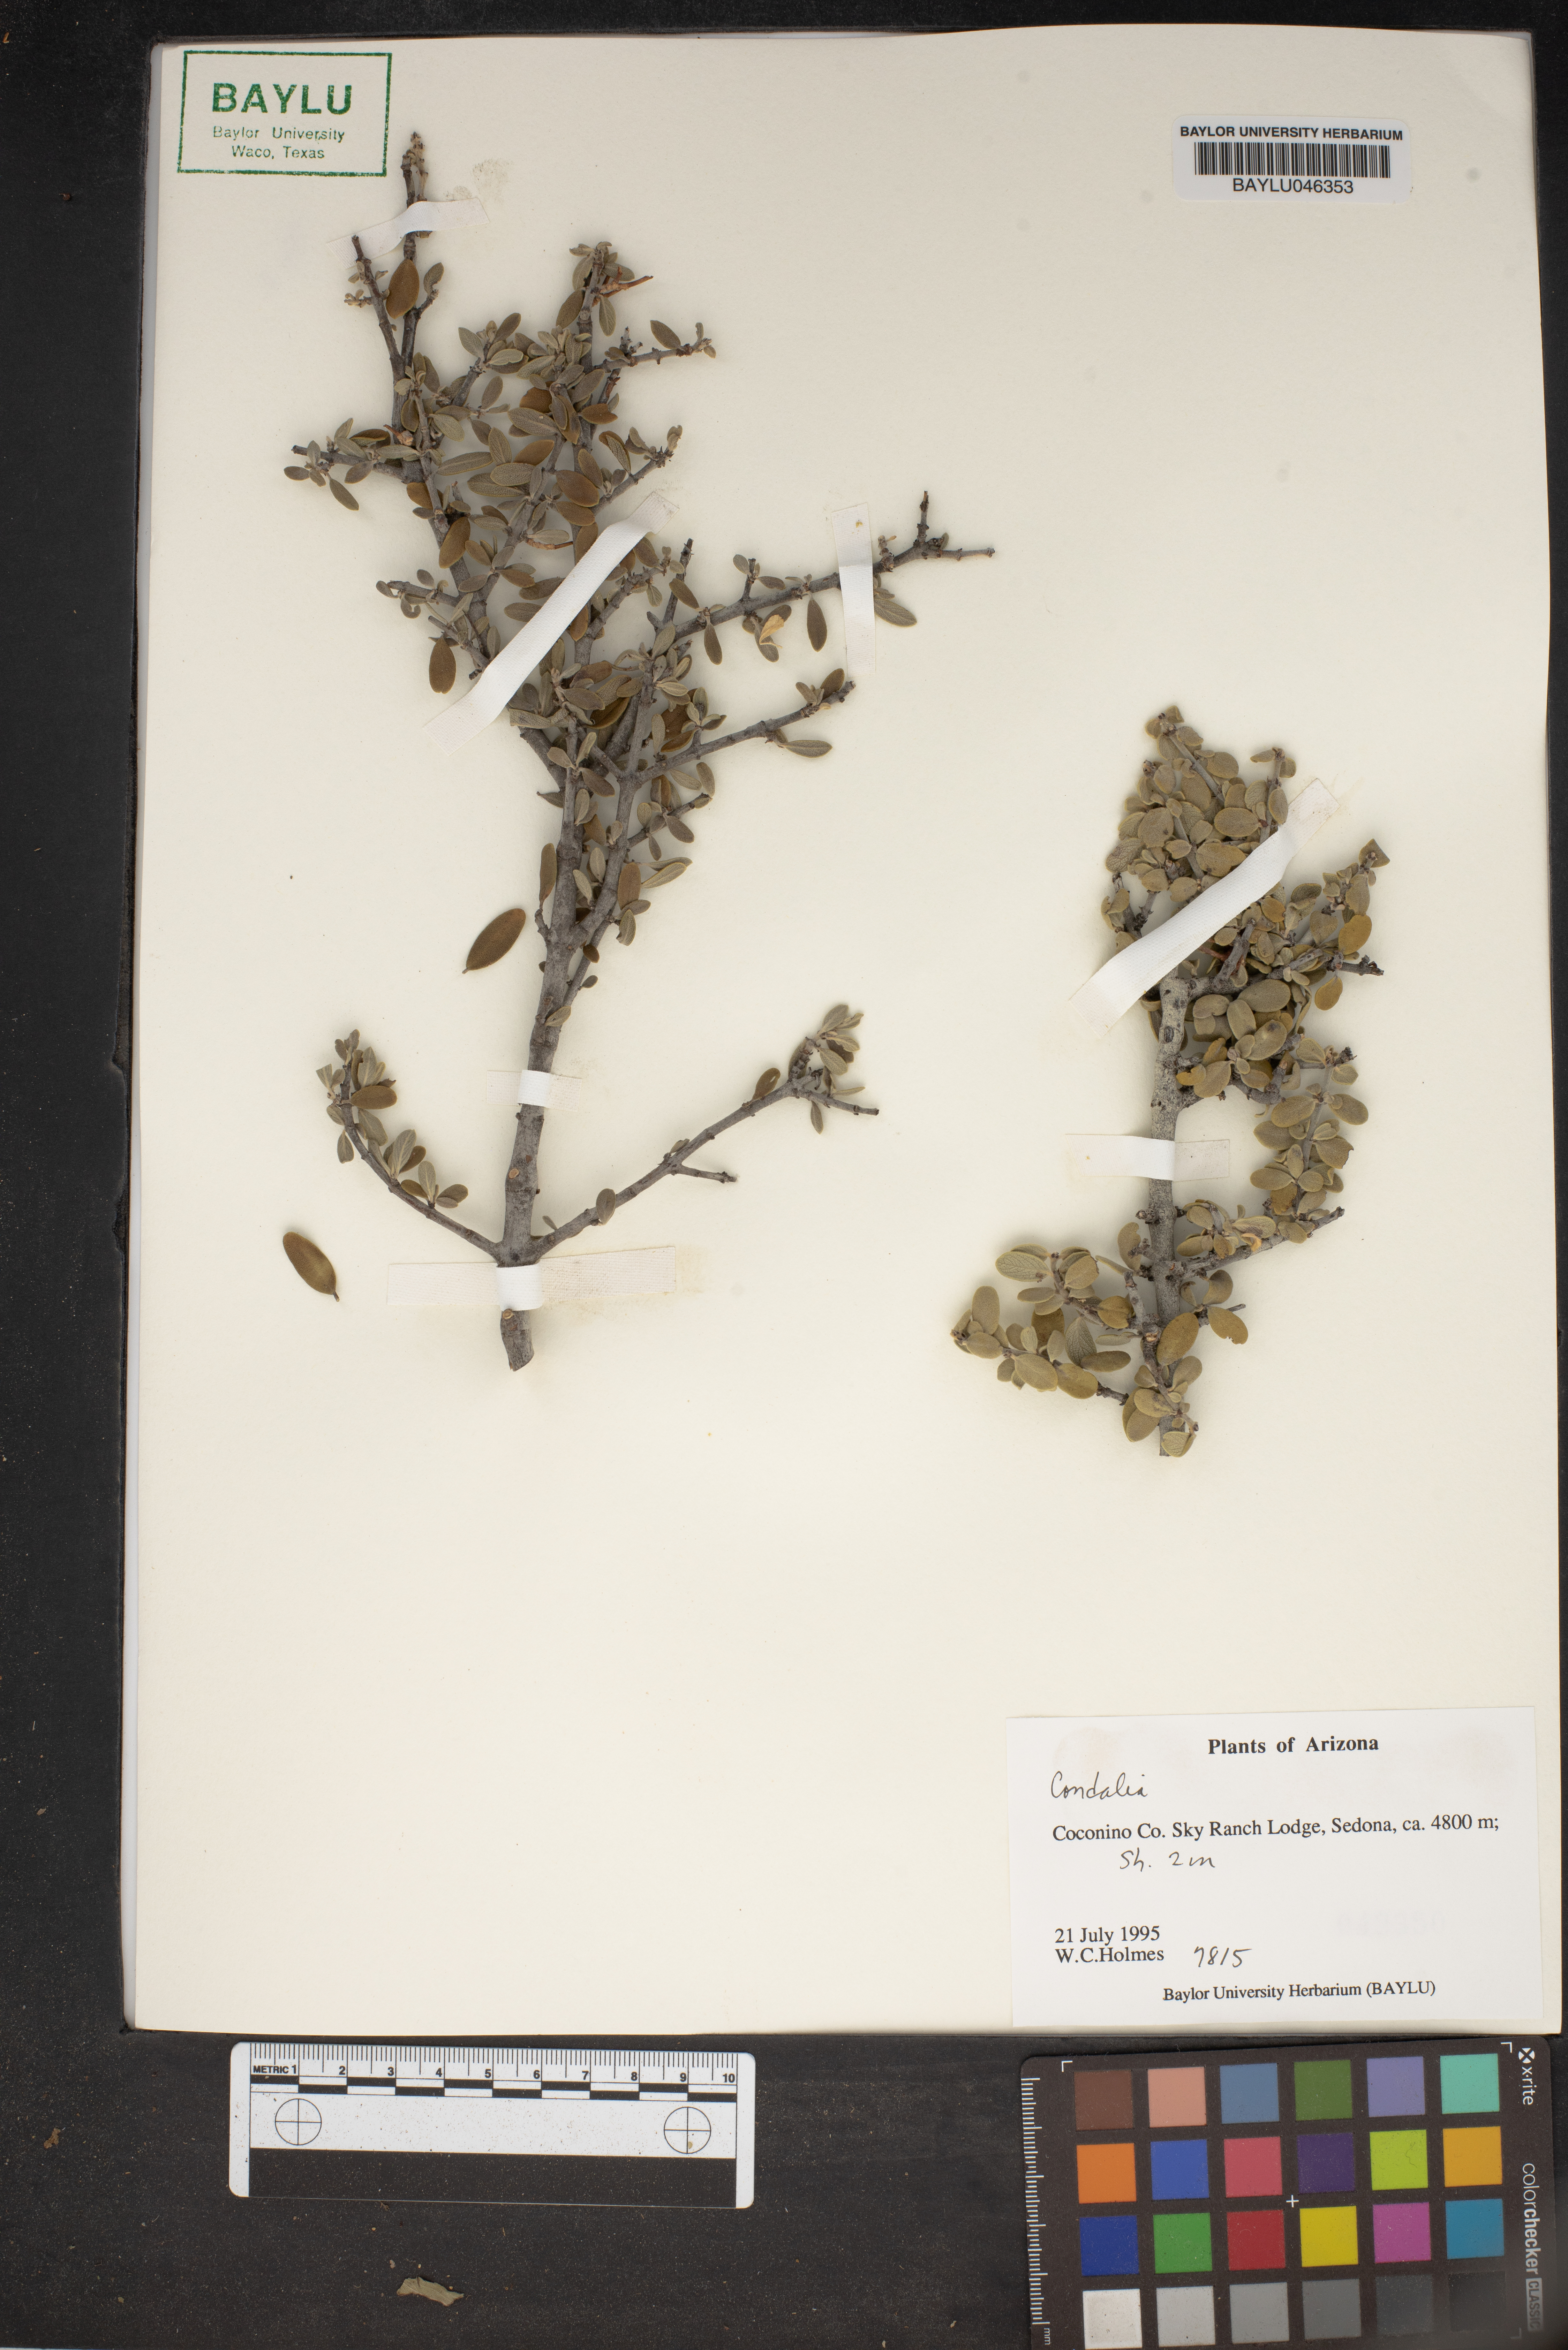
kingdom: Plantae
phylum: Tracheophyta
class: Magnoliopsida
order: Rosales
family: Rhamnaceae
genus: Condalia
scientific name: Condalia
